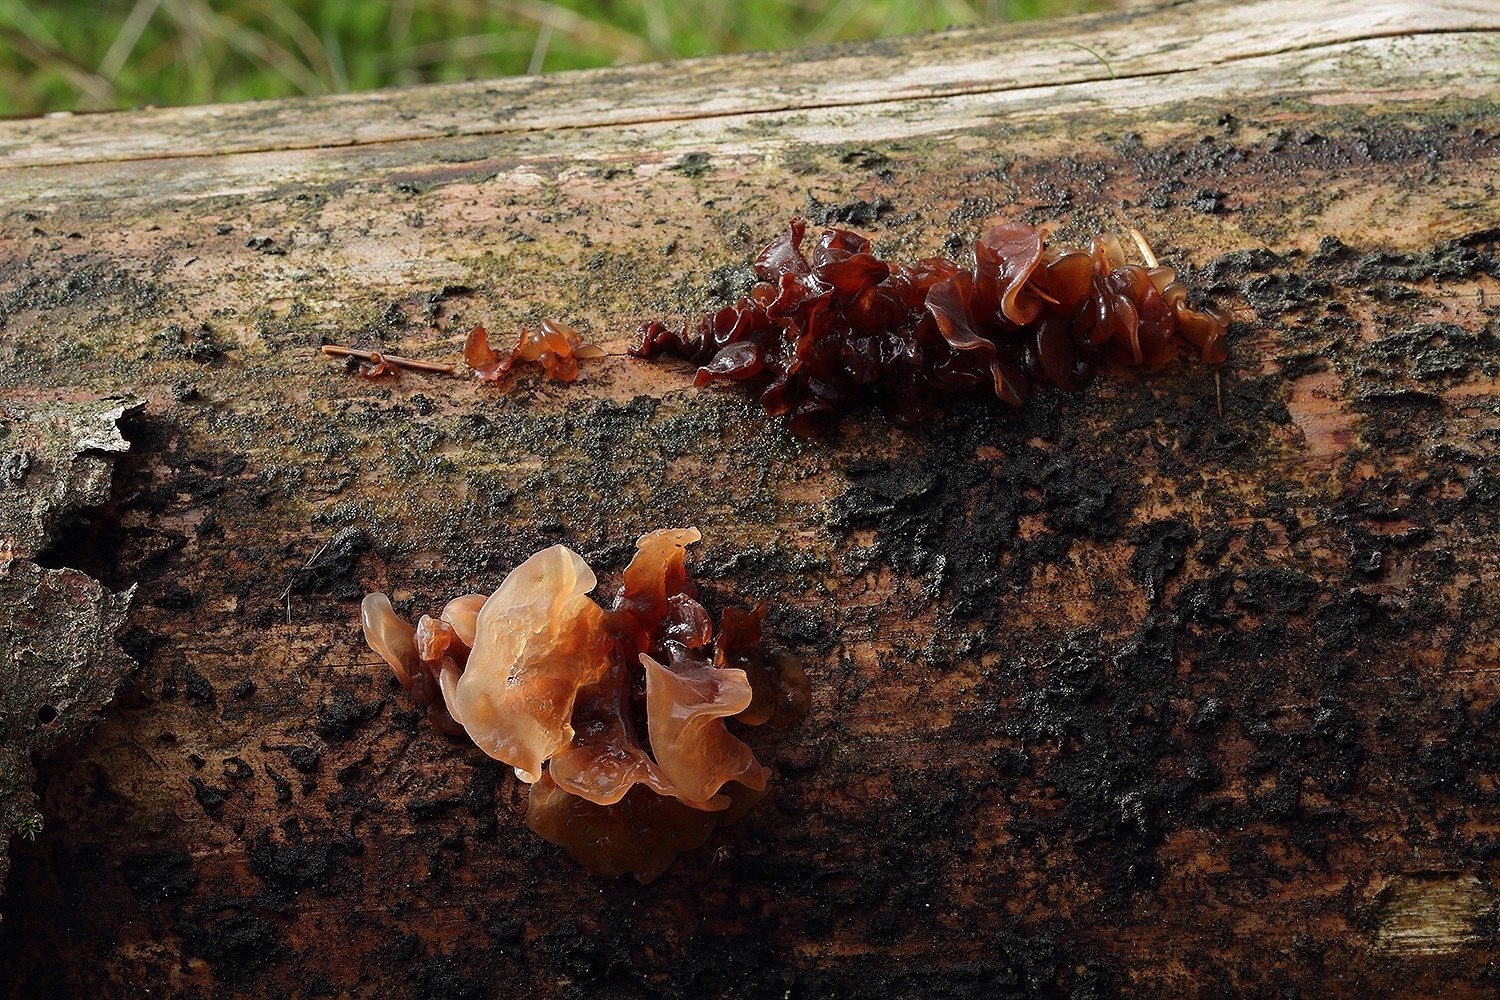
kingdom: Fungi
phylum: Basidiomycota
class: Tremellomycetes
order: Tremellales
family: Tremellaceae
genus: Phaeotremella
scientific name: Phaeotremella foliacea
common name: brun bævresvamp
